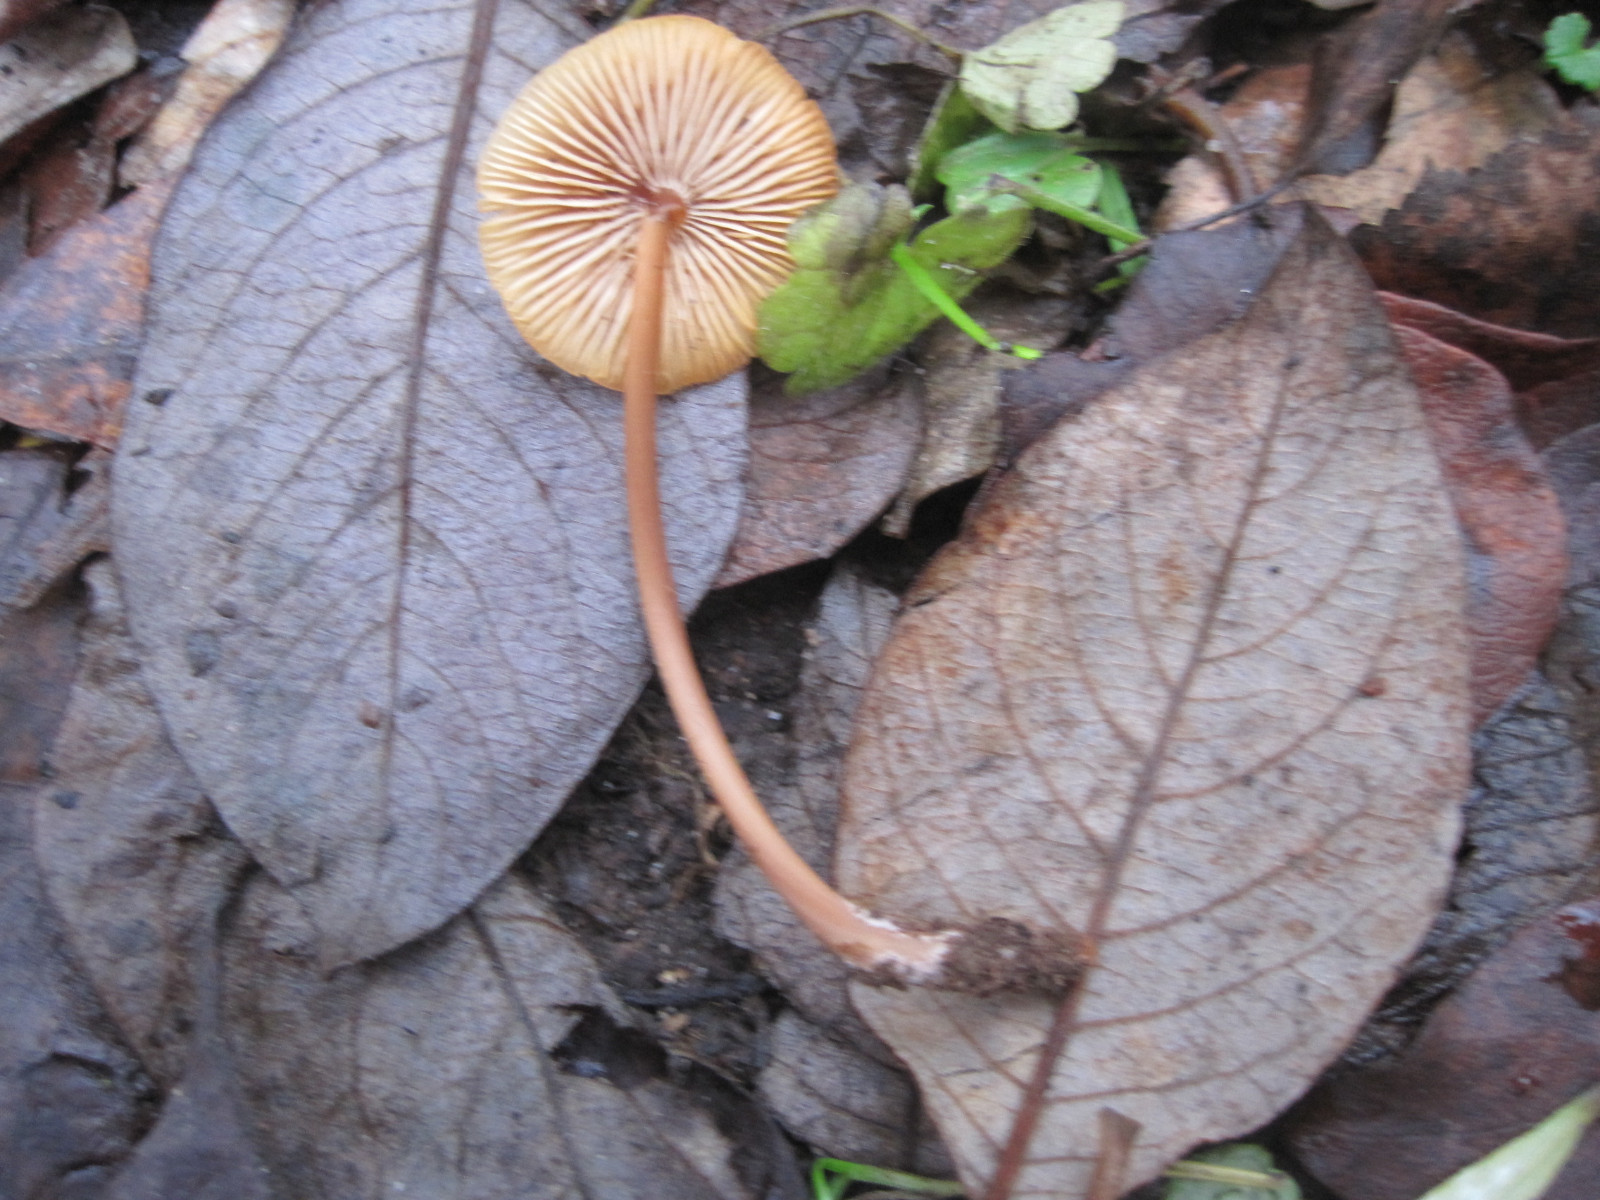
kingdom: Fungi
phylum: Basidiomycota
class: Agaricomycetes
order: Agaricales
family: Mycenaceae
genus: Mycena
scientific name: Mycena crocata
